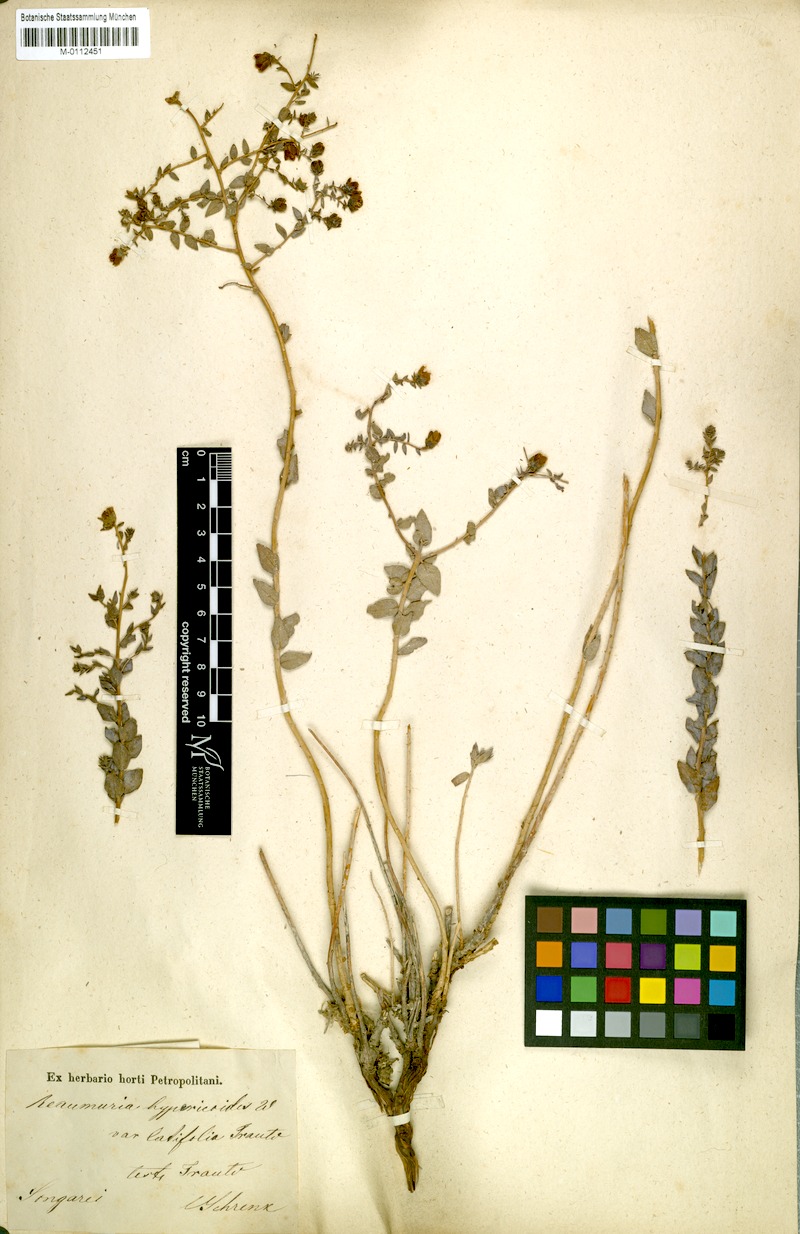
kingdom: Plantae
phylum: Tracheophyta
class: Magnoliopsida
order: Caryophyllales
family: Tamaricaceae
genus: Reaumuria
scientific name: Reaumuria alternifolia
